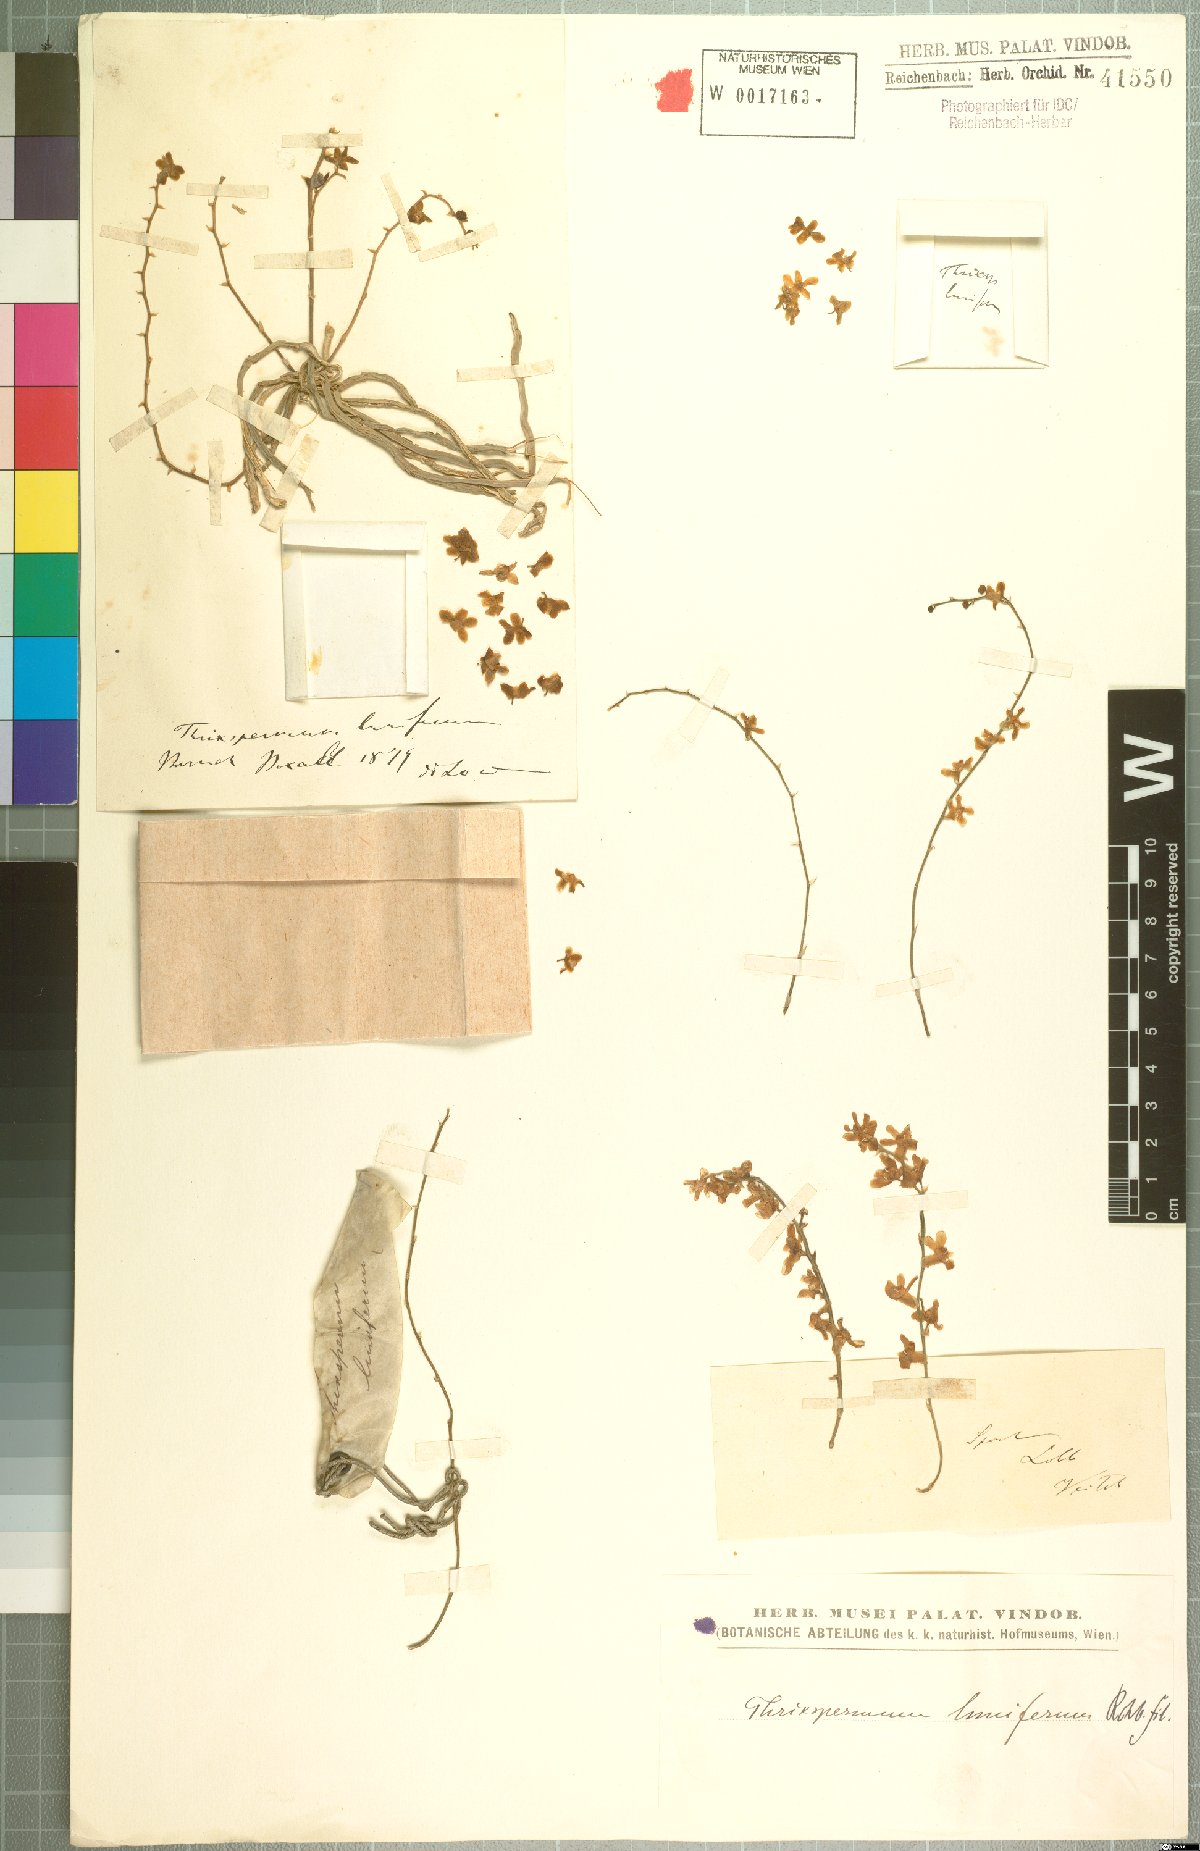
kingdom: Plantae
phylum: Tracheophyta
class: Liliopsida
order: Asparagales
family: Orchidaceae
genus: Chiloschista
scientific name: Chiloschista lunifera
